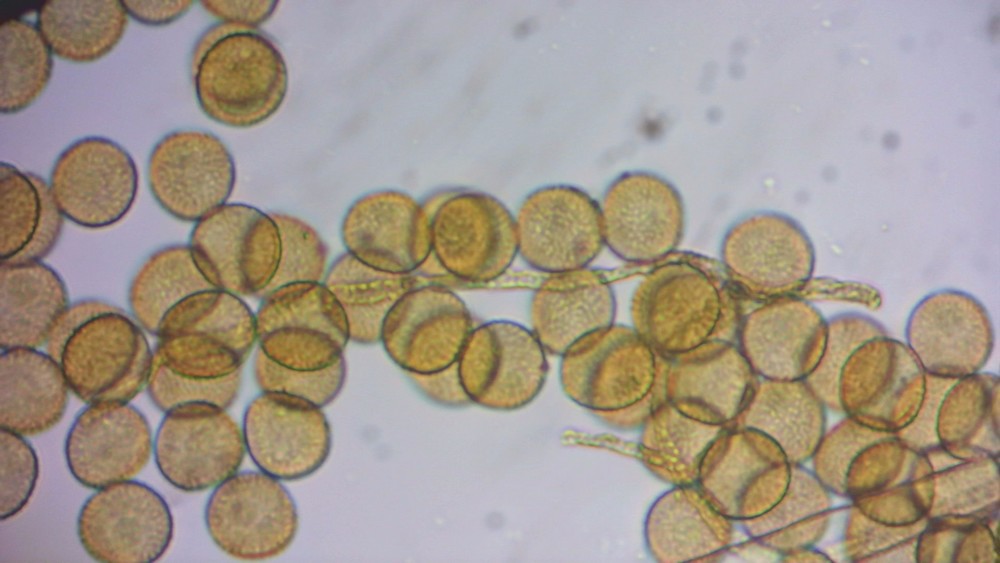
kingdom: Protozoa
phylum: Mycetozoa
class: Myxomycetes
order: Trichiales
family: Trichiaceae
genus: Perichaena
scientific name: Perichaena corticalis
